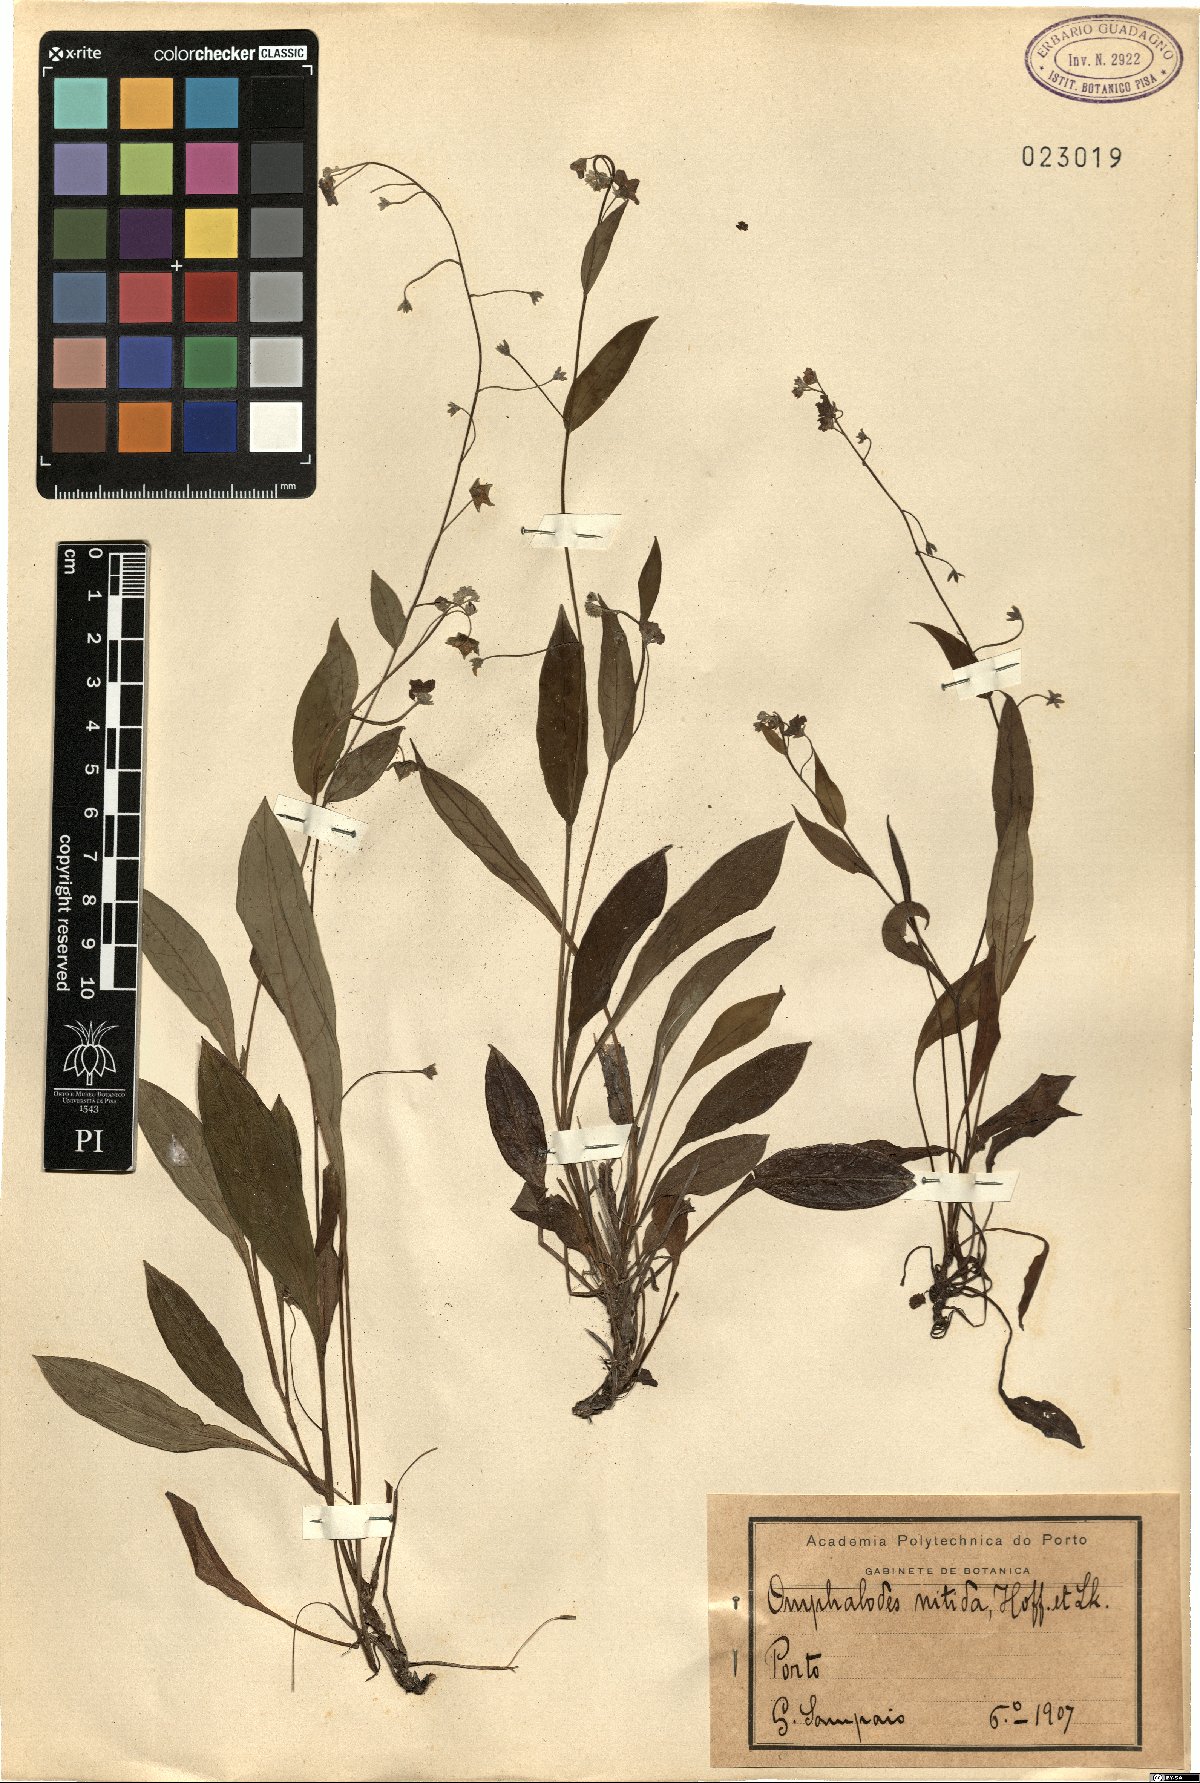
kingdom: Plantae
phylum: Tracheophyta
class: Magnoliopsida
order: Boraginales
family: Boraginaceae
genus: Omphalodes
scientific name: Omphalodes nitida
